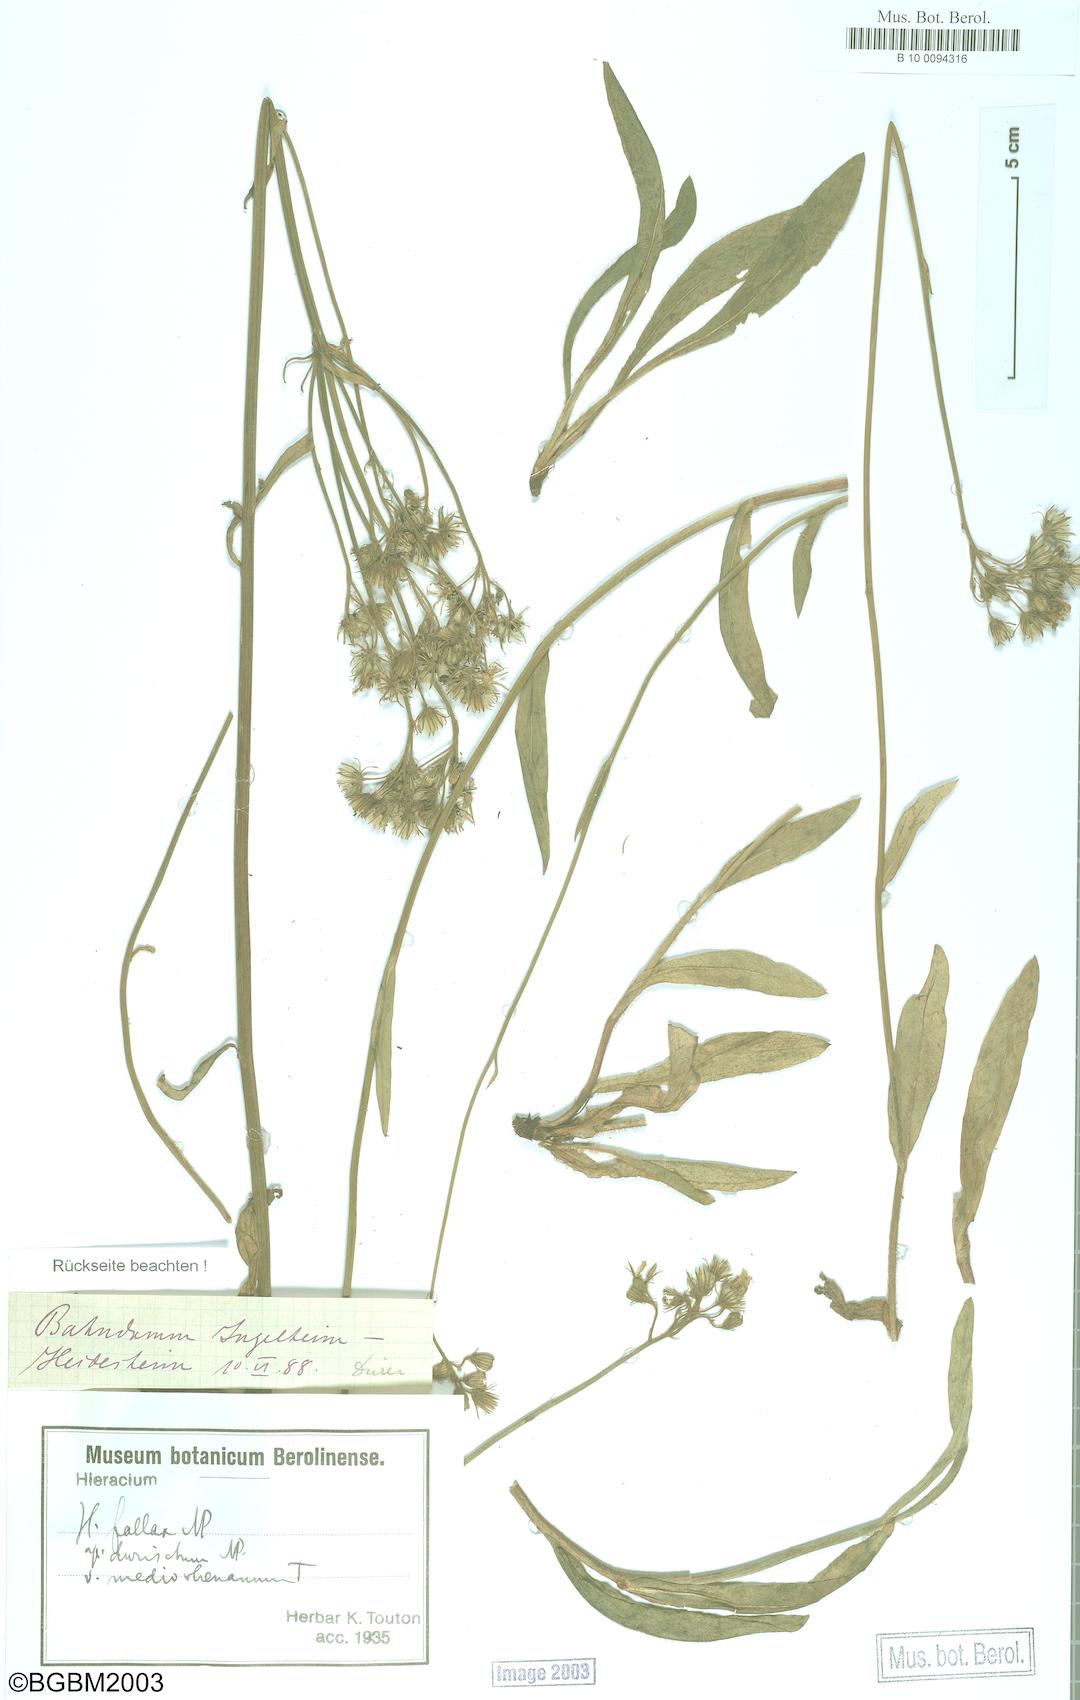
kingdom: Plantae
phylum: Tracheophyta
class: Magnoliopsida
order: Asterales
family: Asteraceae
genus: Hieracium
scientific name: Hieracium fallax
